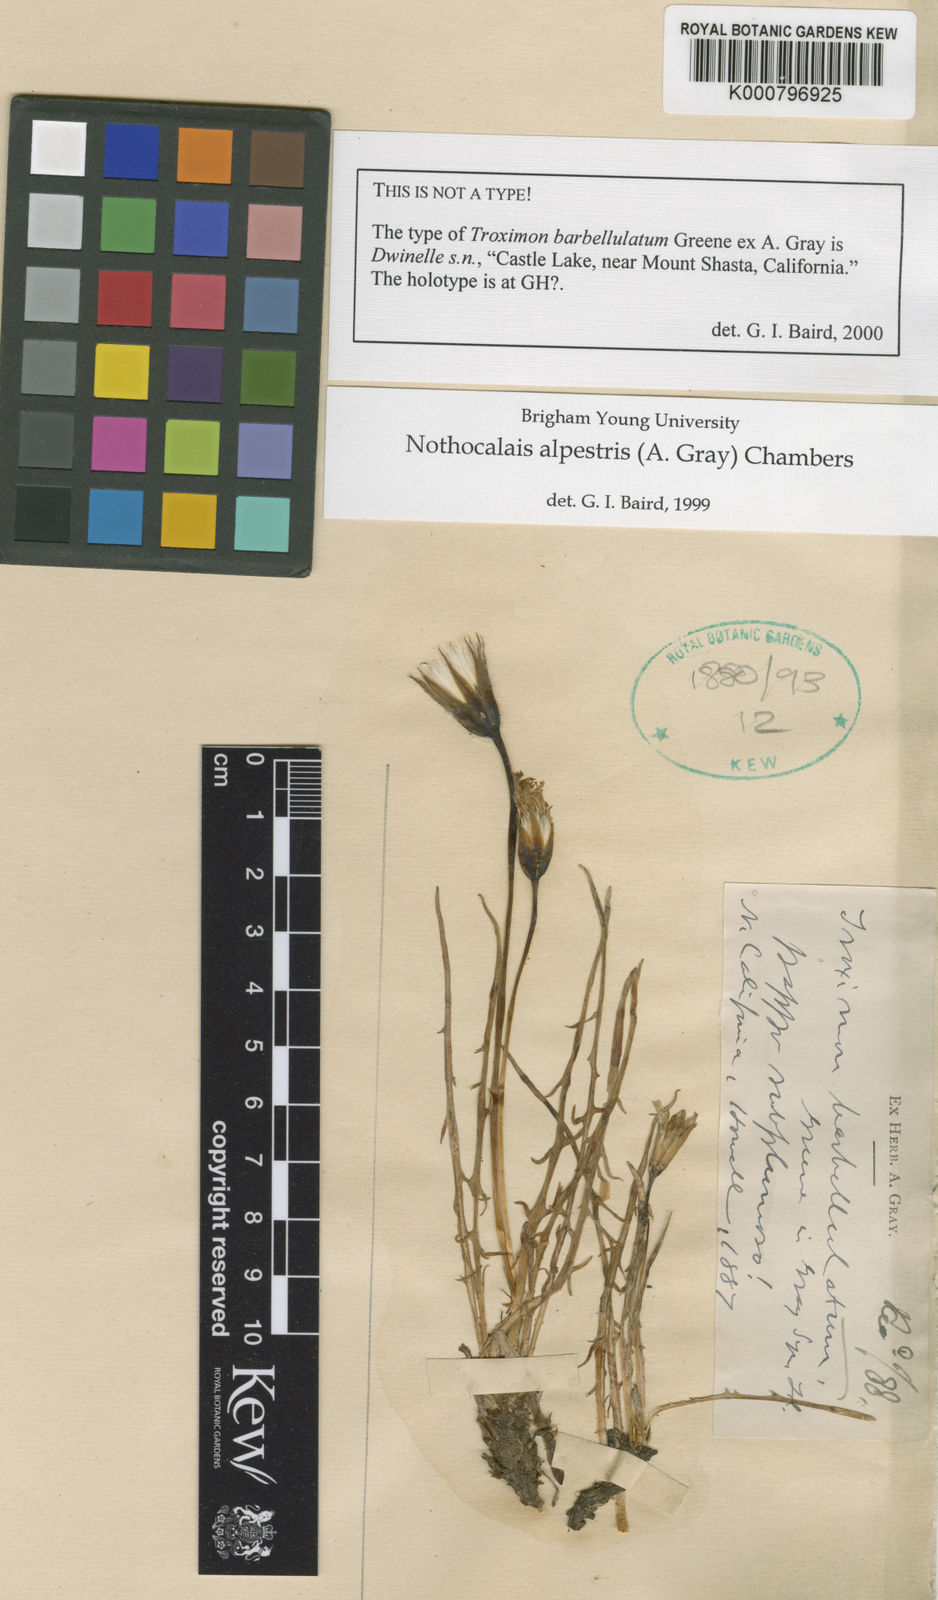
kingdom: Plantae
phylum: Tracheophyta
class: Magnoliopsida
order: Asterales
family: Asteraceae
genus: Microseris
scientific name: Microseris alpestris
